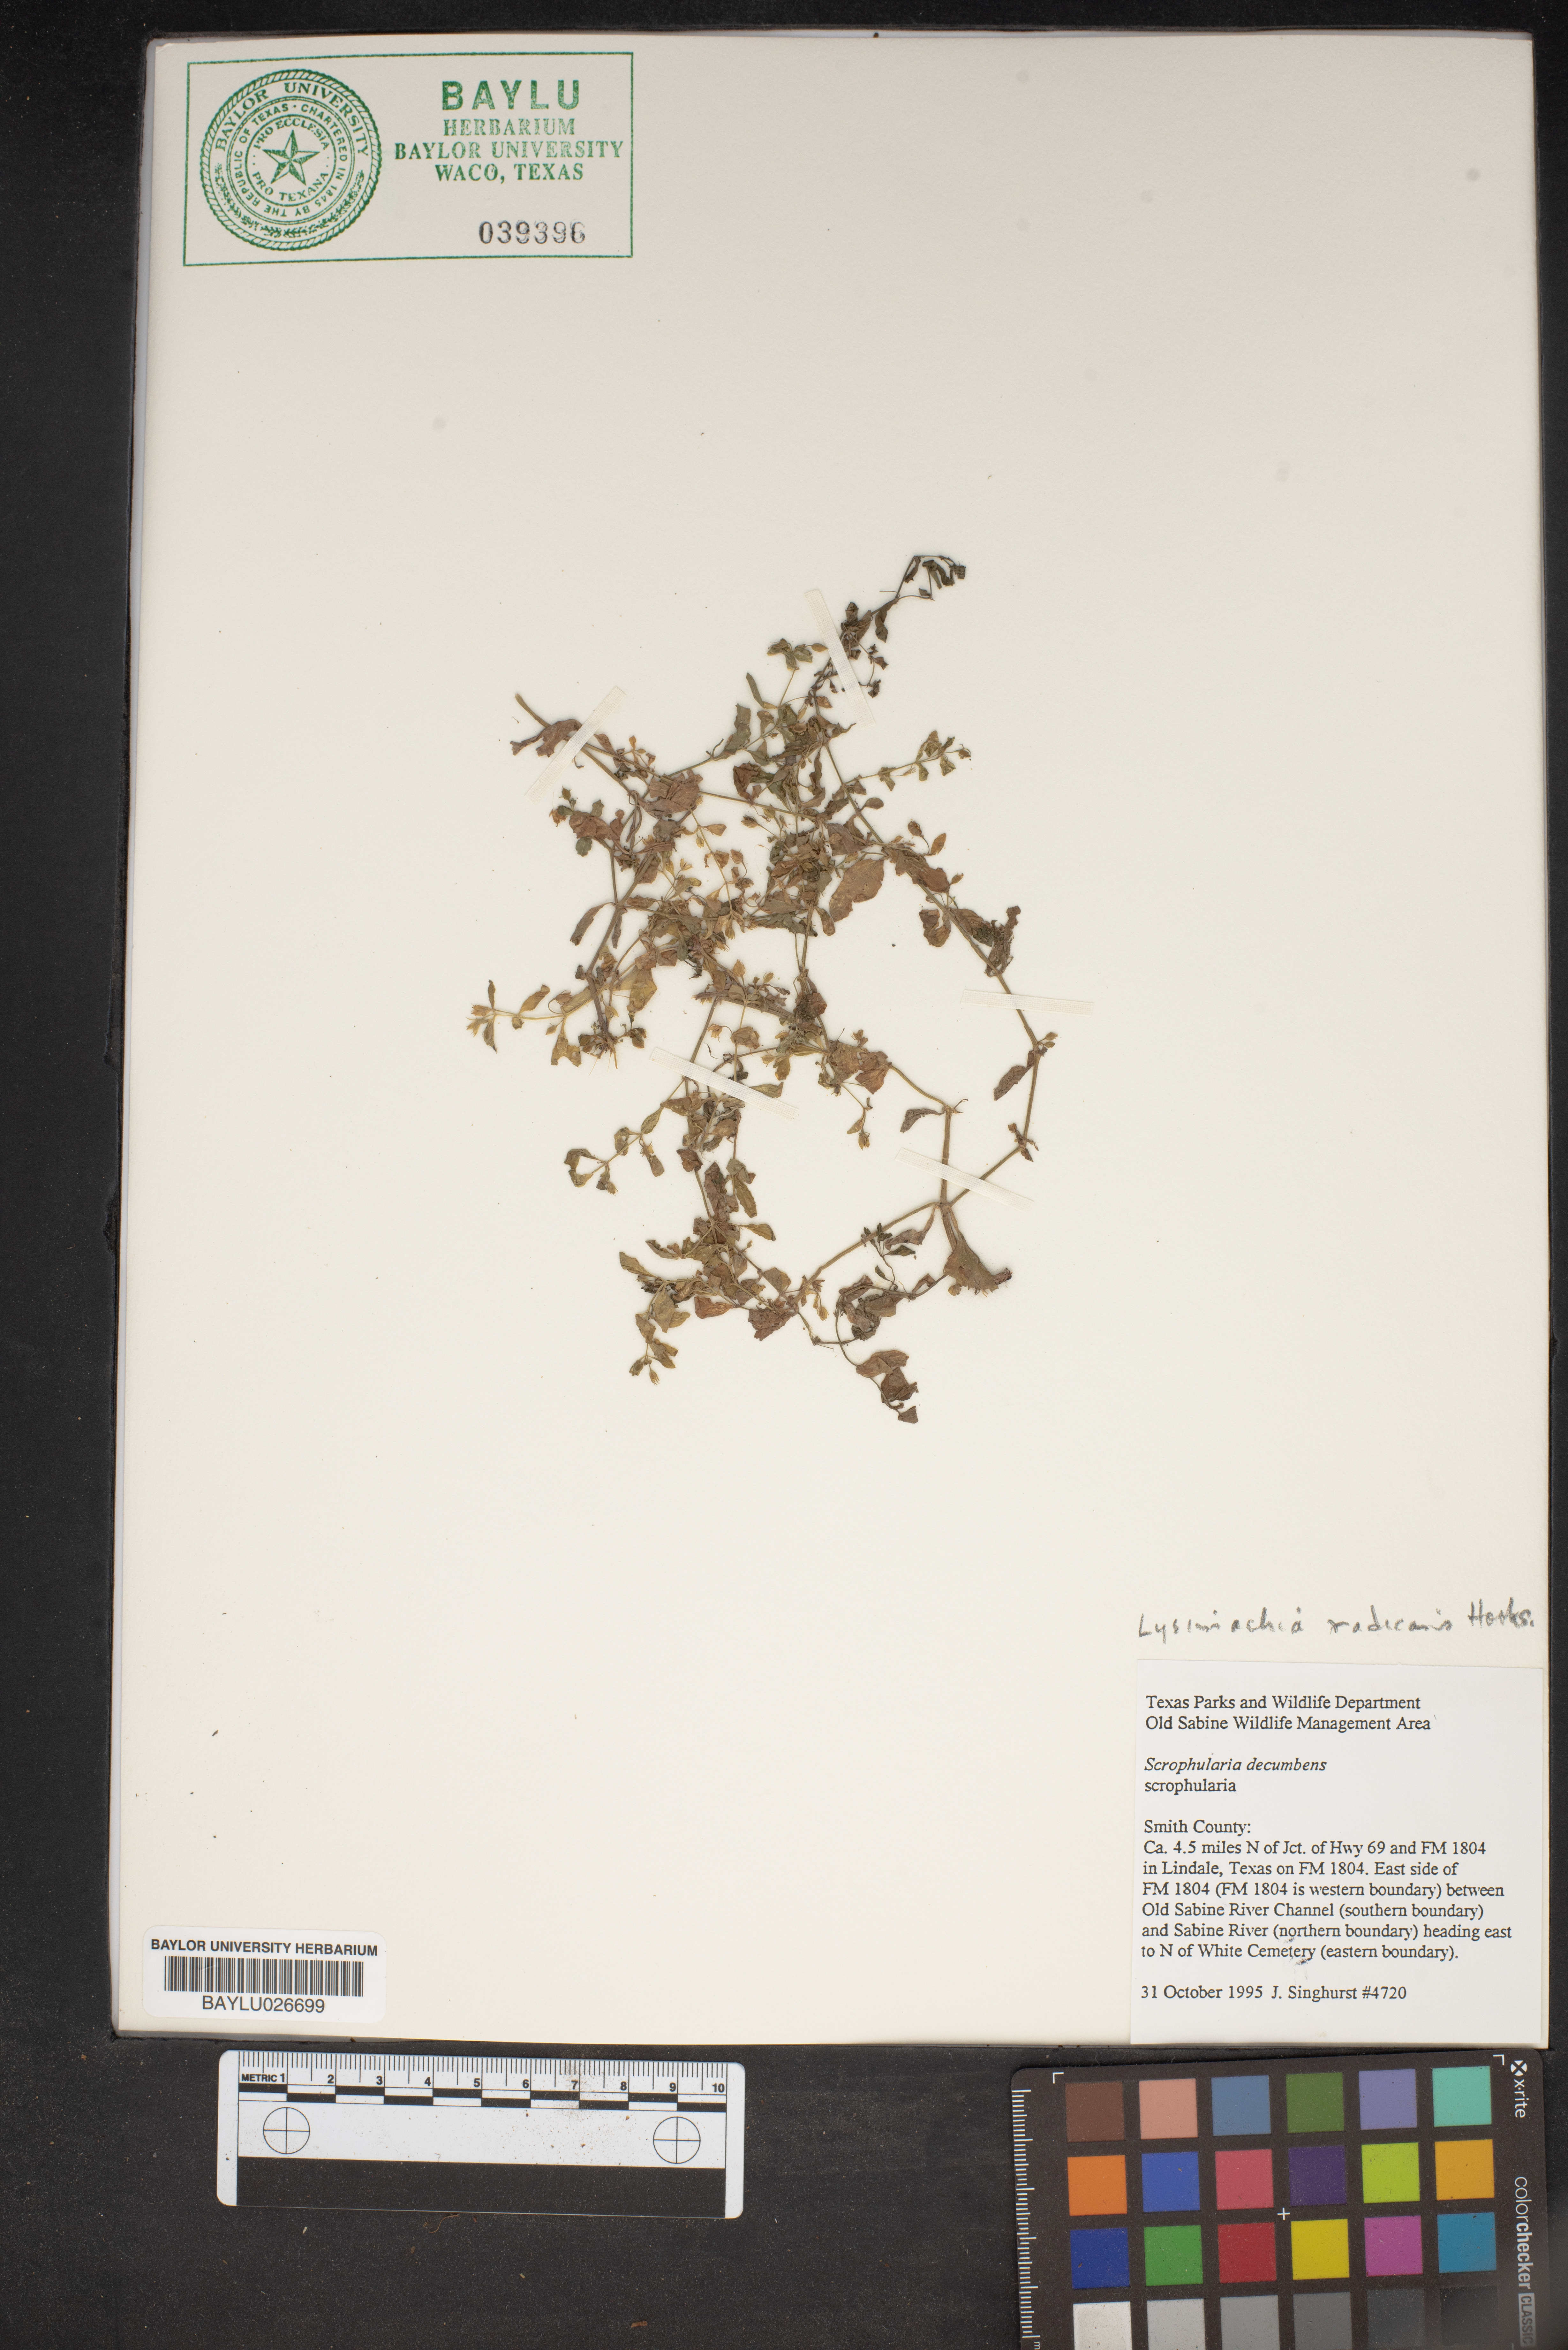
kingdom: Plantae
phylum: Tracheophyta
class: Magnoliopsida
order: Lamiales
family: Scrophulariaceae
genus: Scrophularia
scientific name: Scrophularia scopolii
